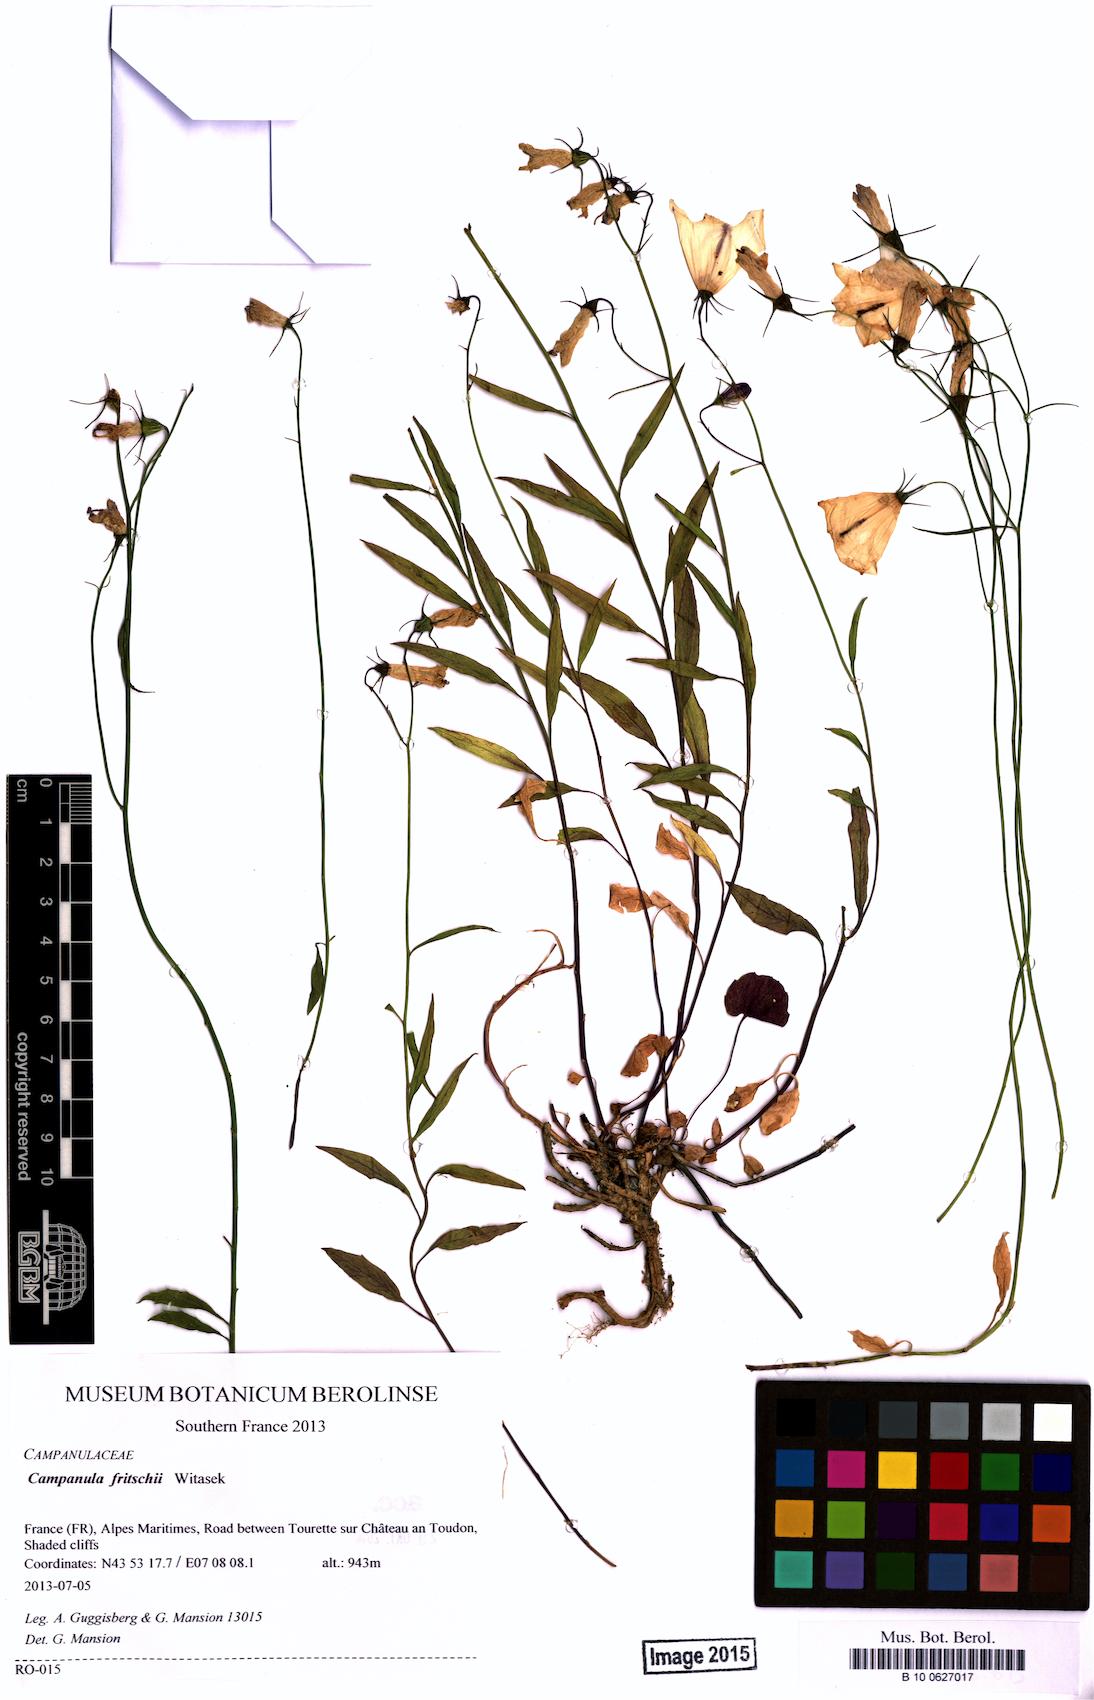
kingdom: Plantae
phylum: Tracheophyta
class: Magnoliopsida
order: Asterales
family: Campanulaceae
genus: Campanula
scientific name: Campanula fritschii
